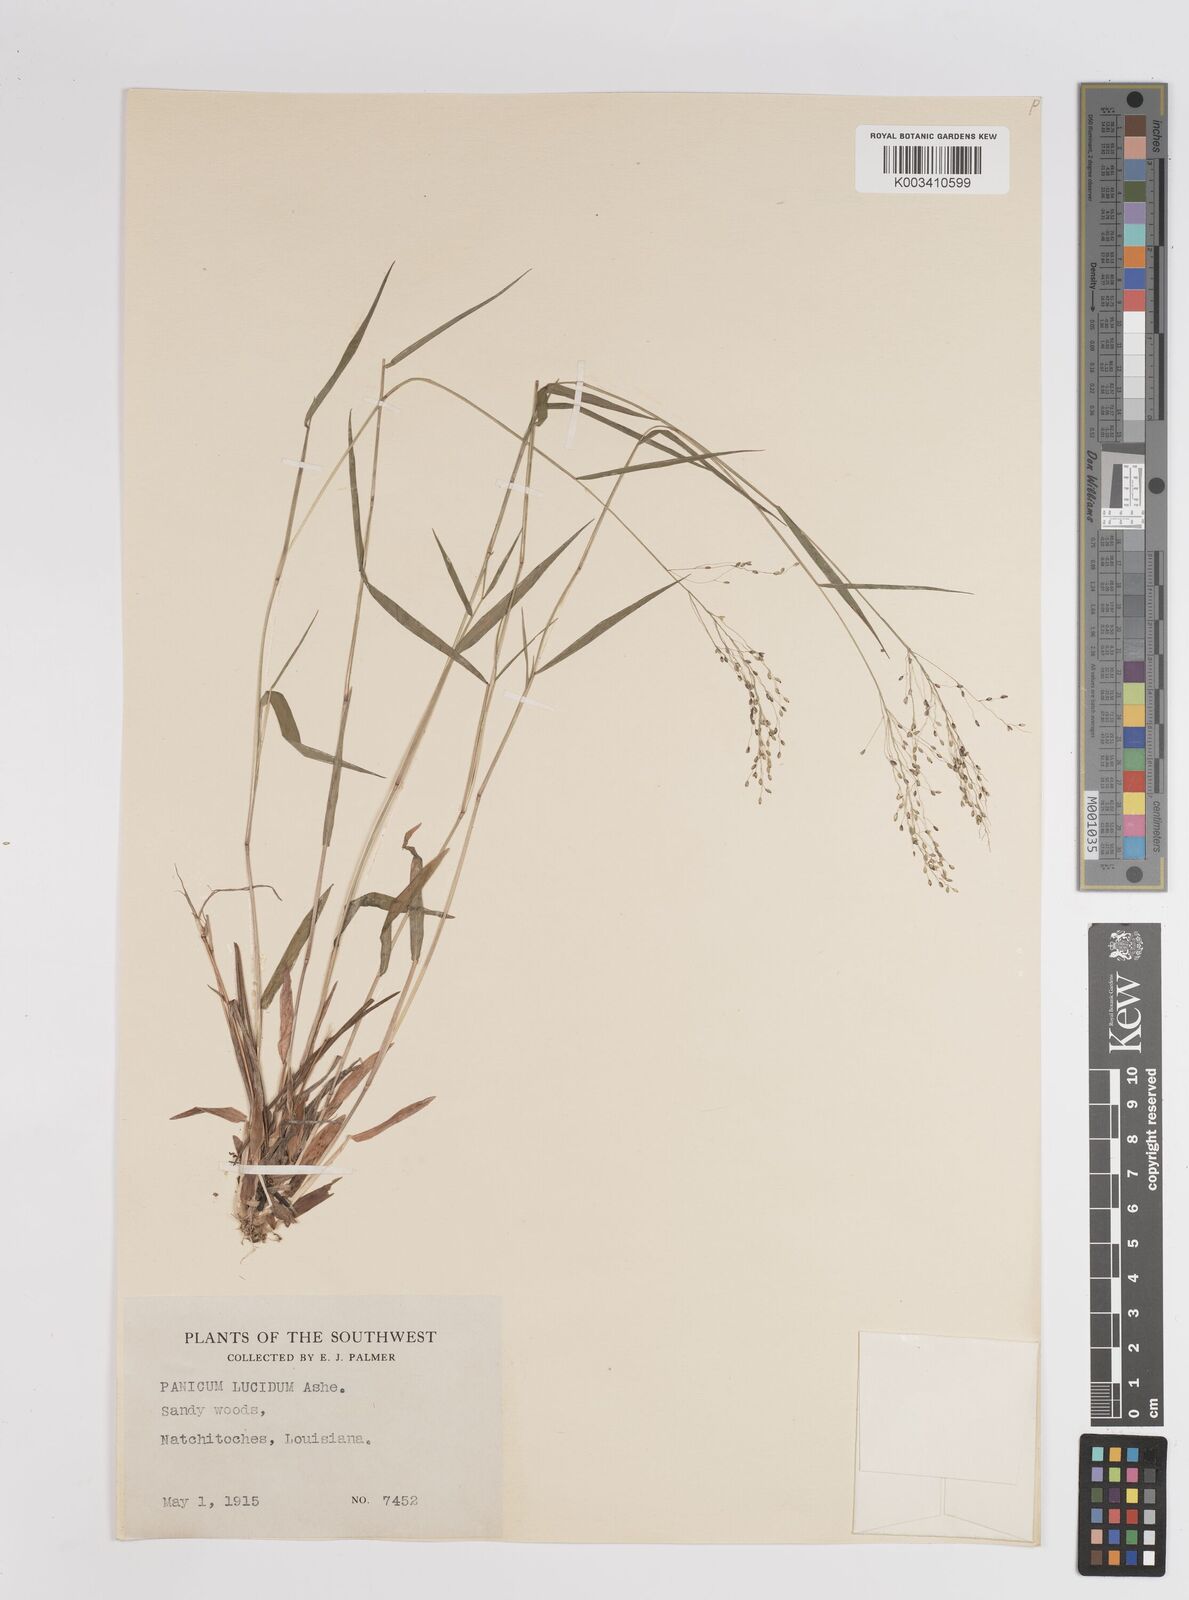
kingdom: Plantae
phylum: Tracheophyta
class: Liliopsida
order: Poales
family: Poaceae
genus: Dichanthelium
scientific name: Dichanthelium lucidum
